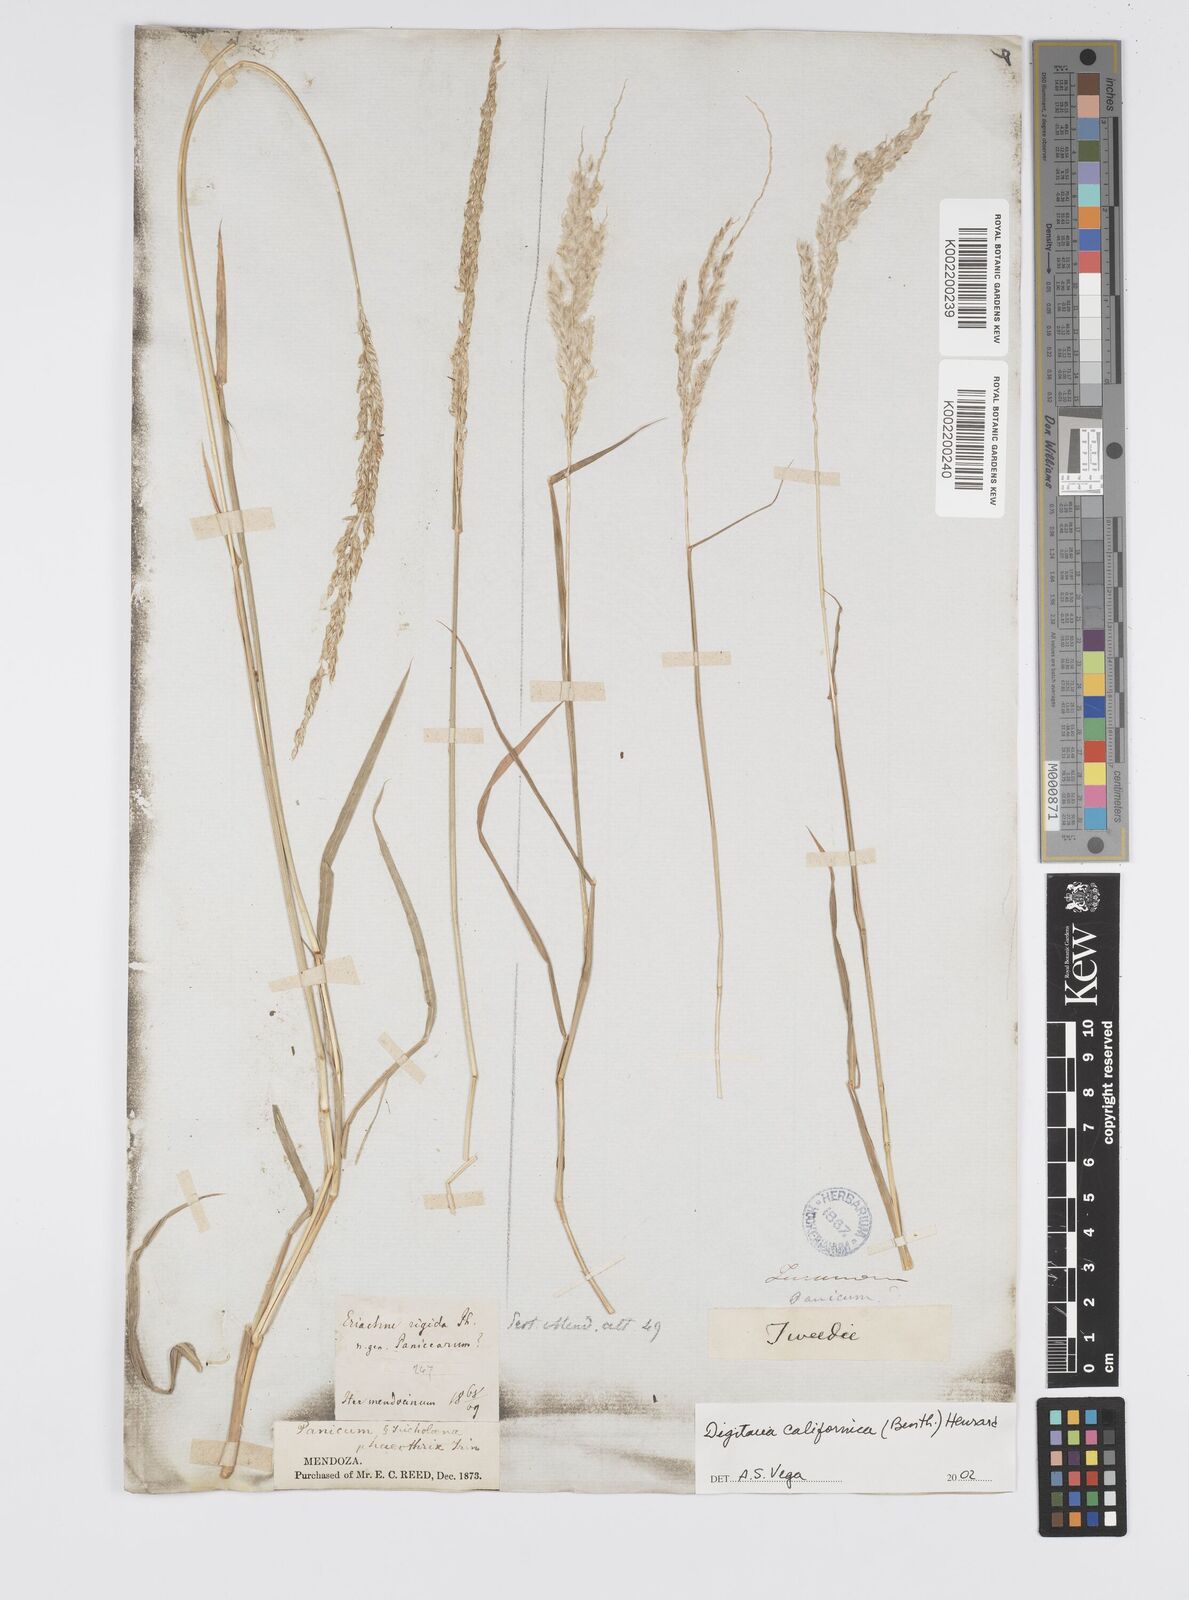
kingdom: Plantae
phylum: Tracheophyta
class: Liliopsida
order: Poales
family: Poaceae
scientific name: Poaceae
